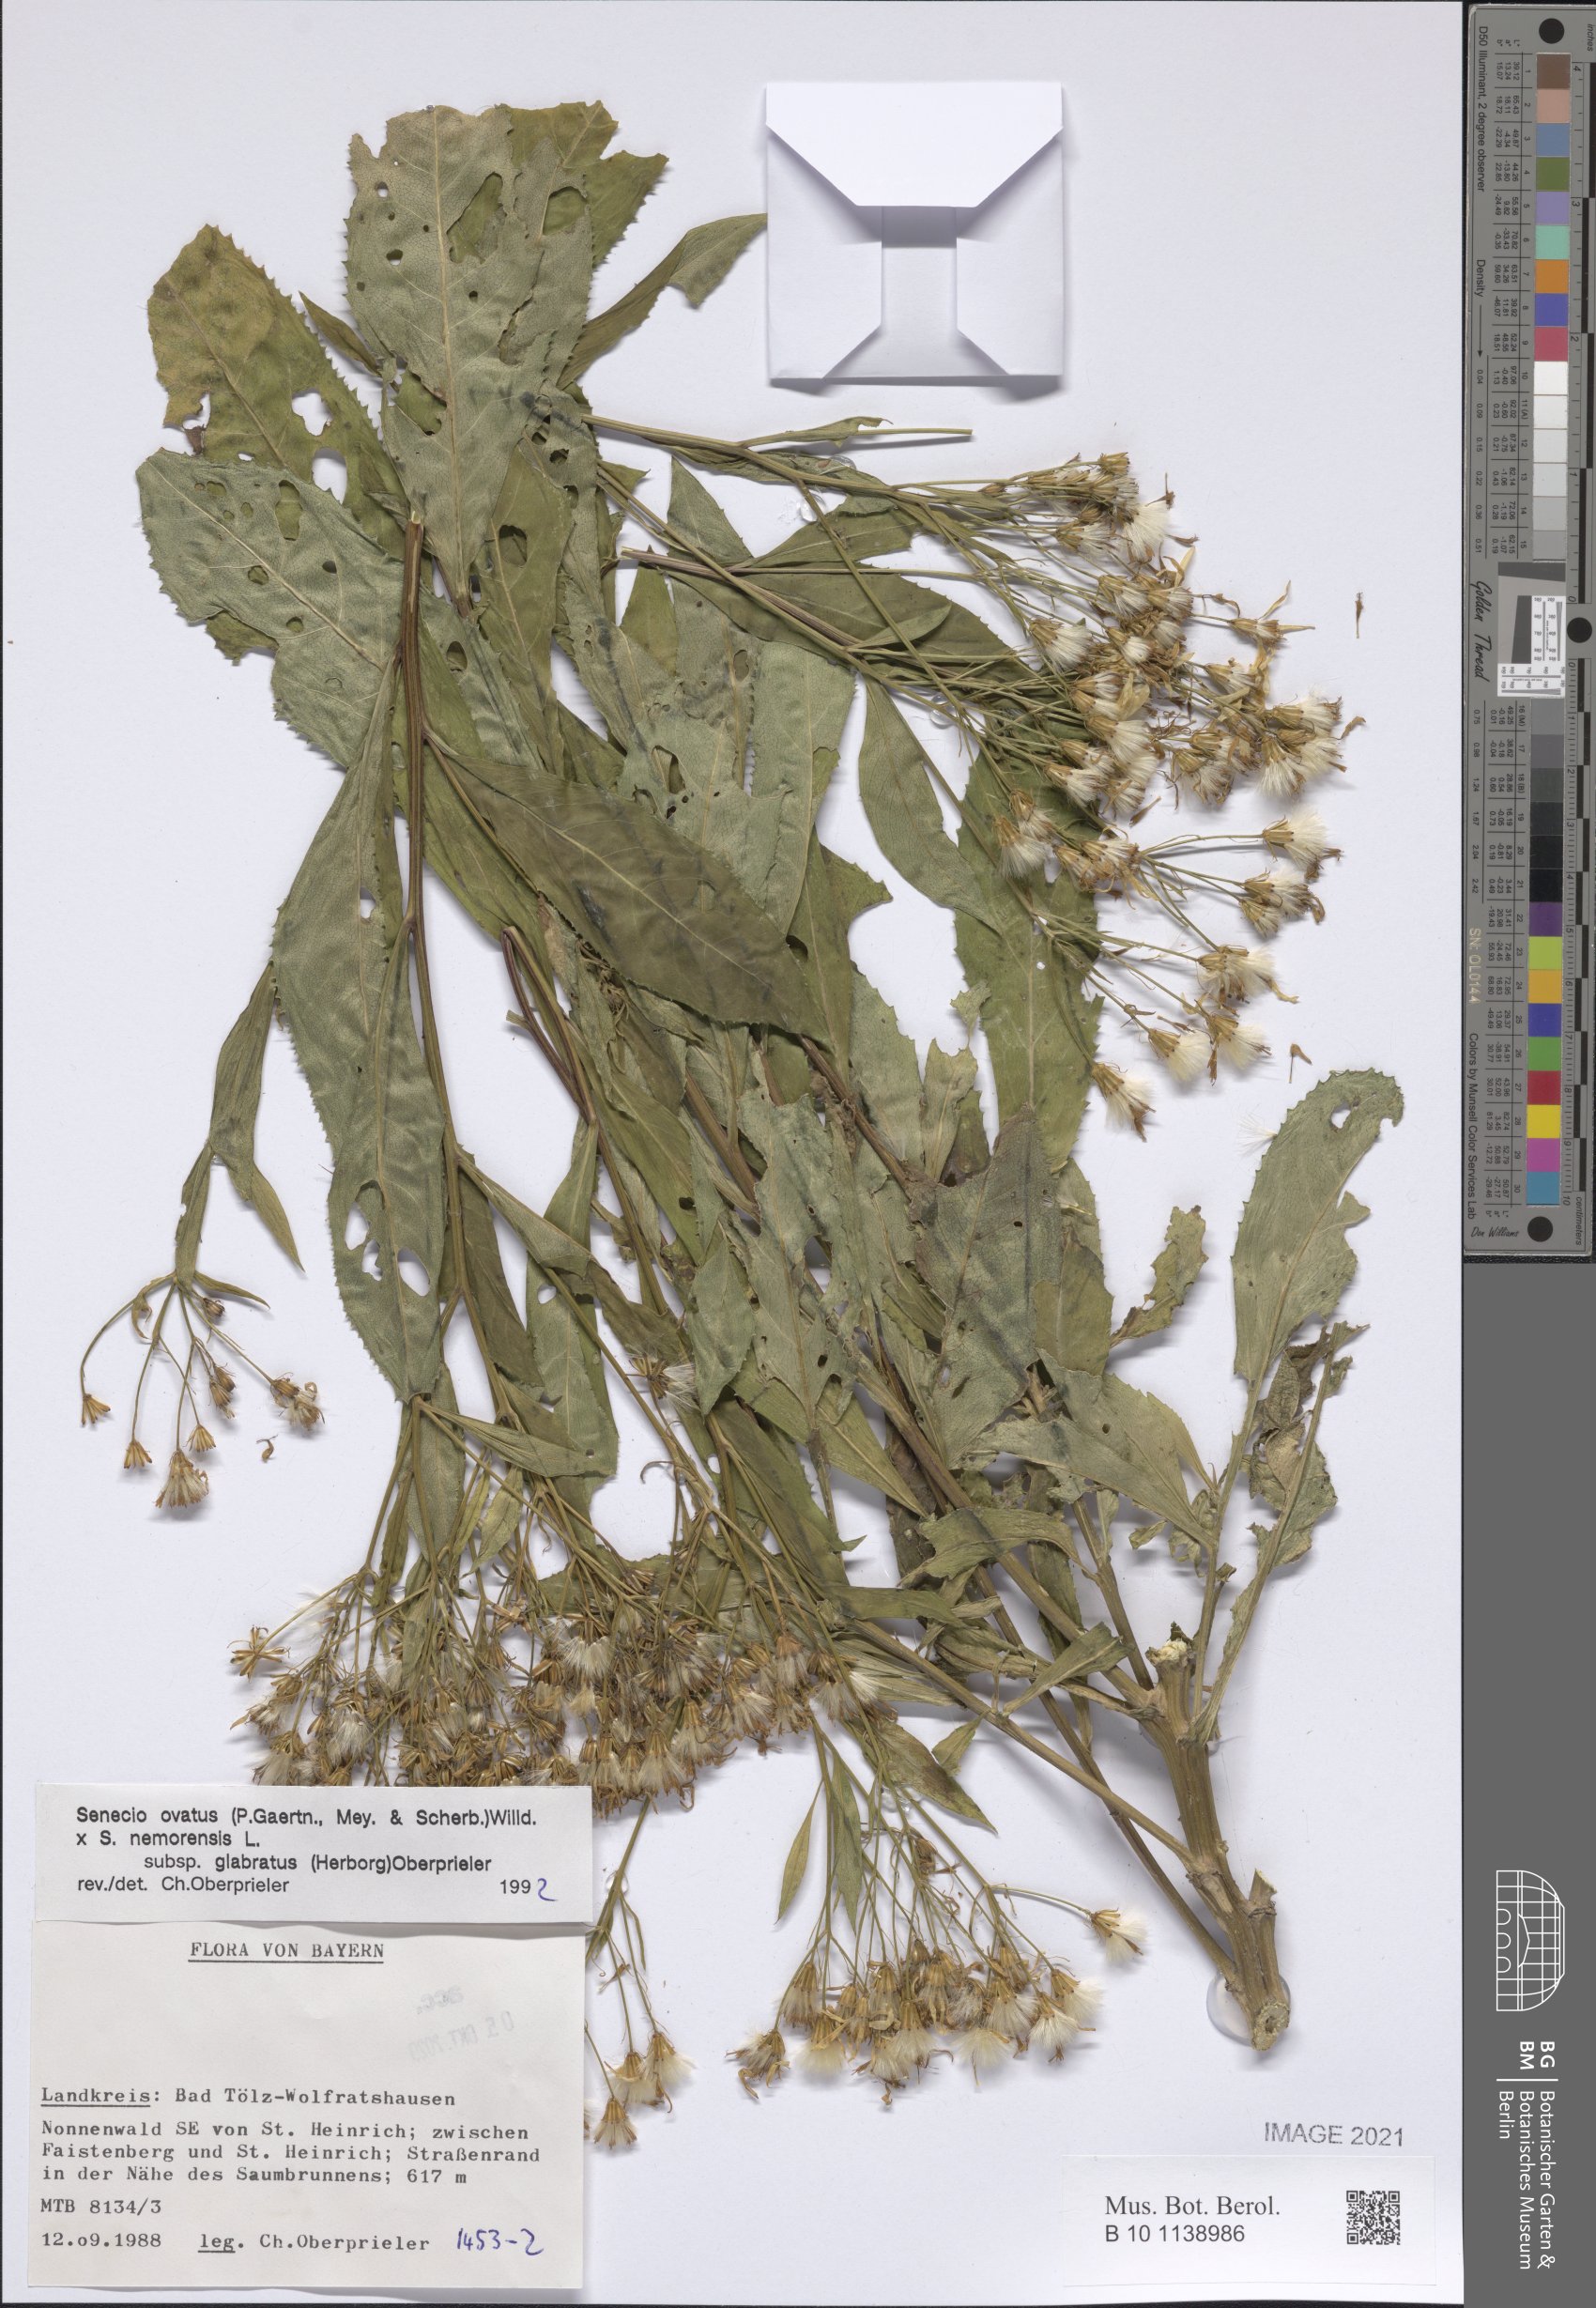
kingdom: Plantae
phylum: Tracheophyta
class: Magnoliopsida
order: Asterales
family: Asteraceae
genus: Senecio
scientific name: Senecio ovatus
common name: Wood ragwort
